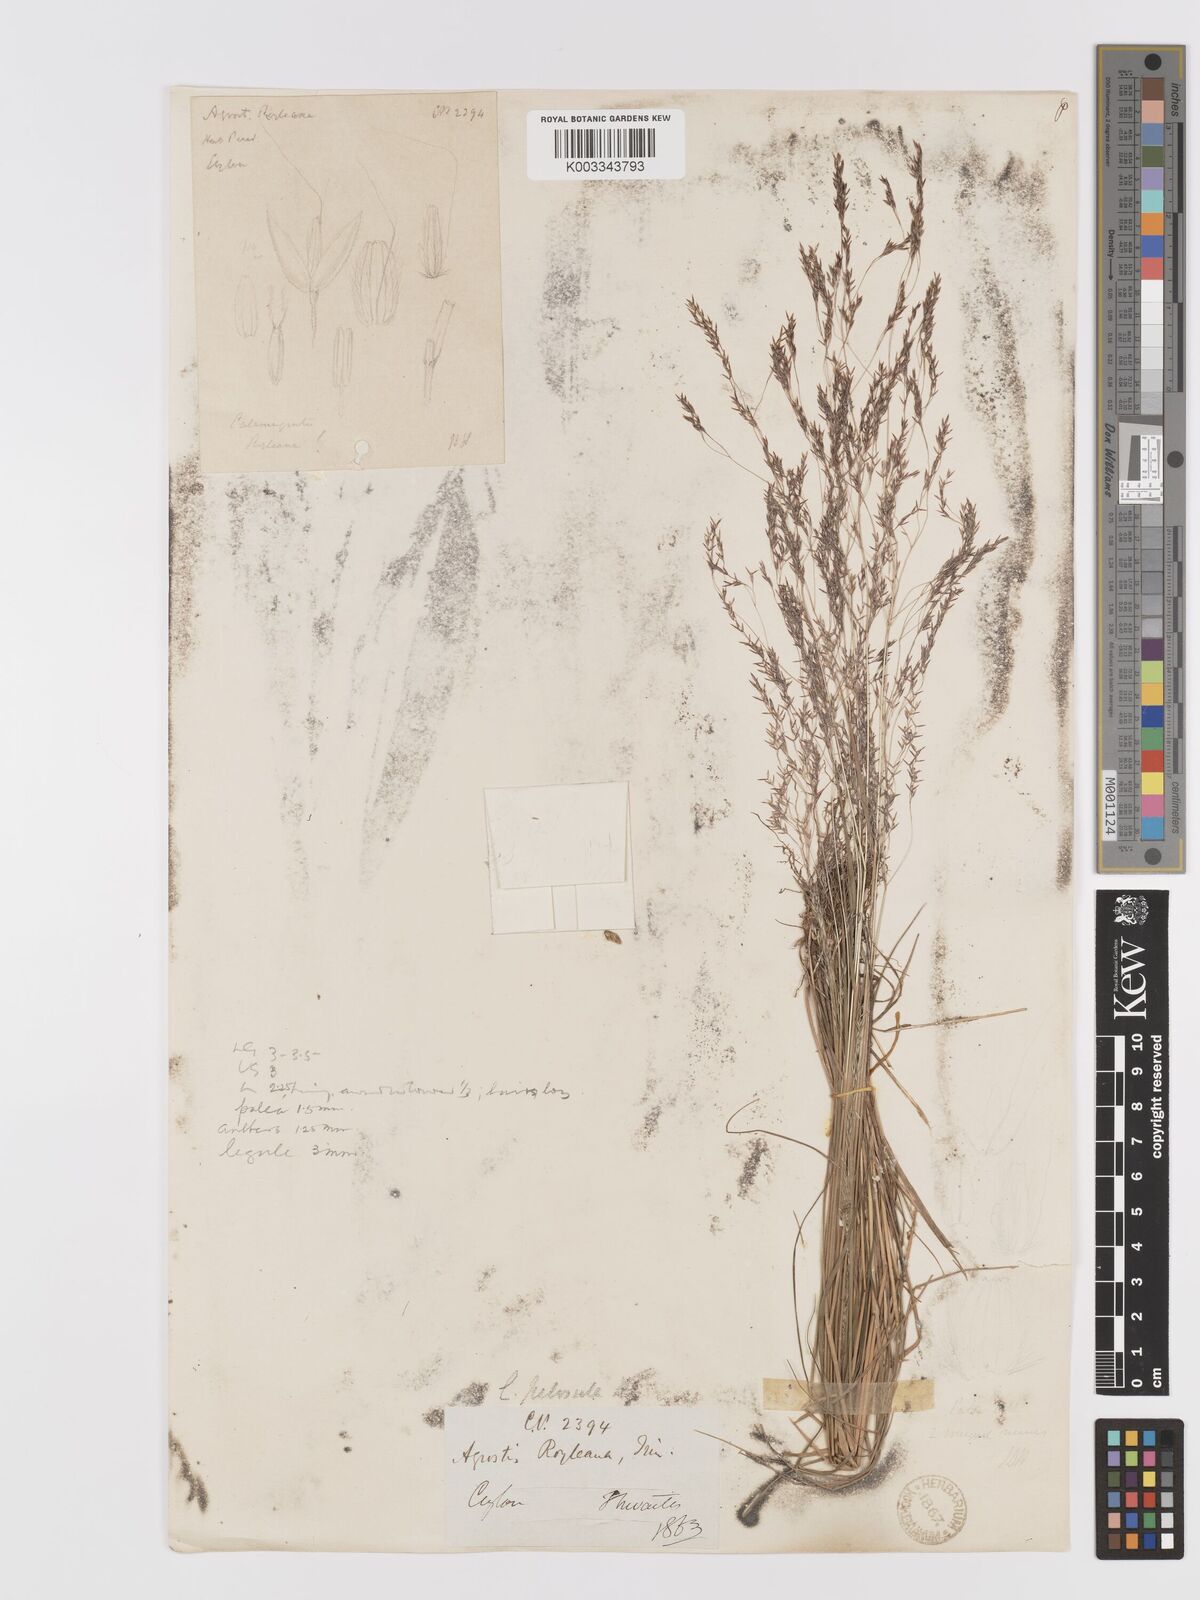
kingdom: Plantae
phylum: Tracheophyta
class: Liliopsida
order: Poales
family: Poaceae
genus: Agrostis
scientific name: Agrostis pilosula
